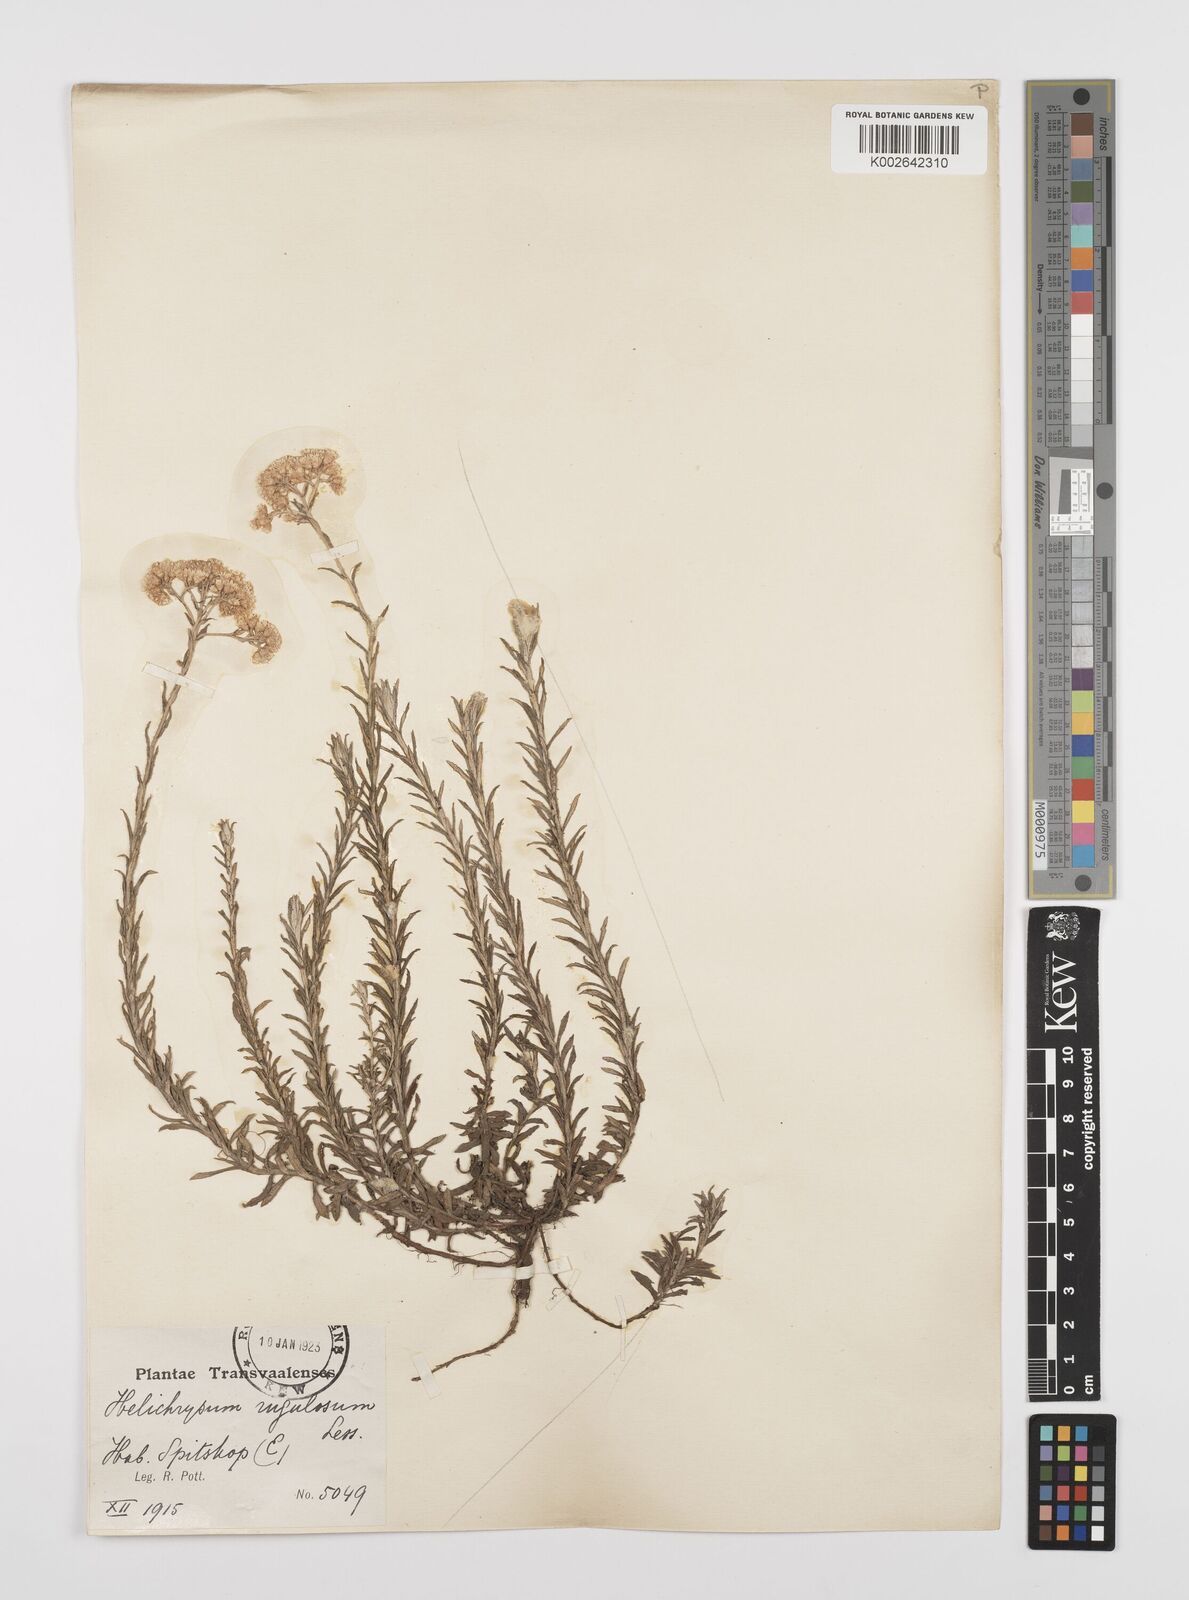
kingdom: Plantae
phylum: Tracheophyta
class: Magnoliopsida
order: Asterales
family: Asteraceae
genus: Helichrysum
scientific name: Helichrysum rugulosum
